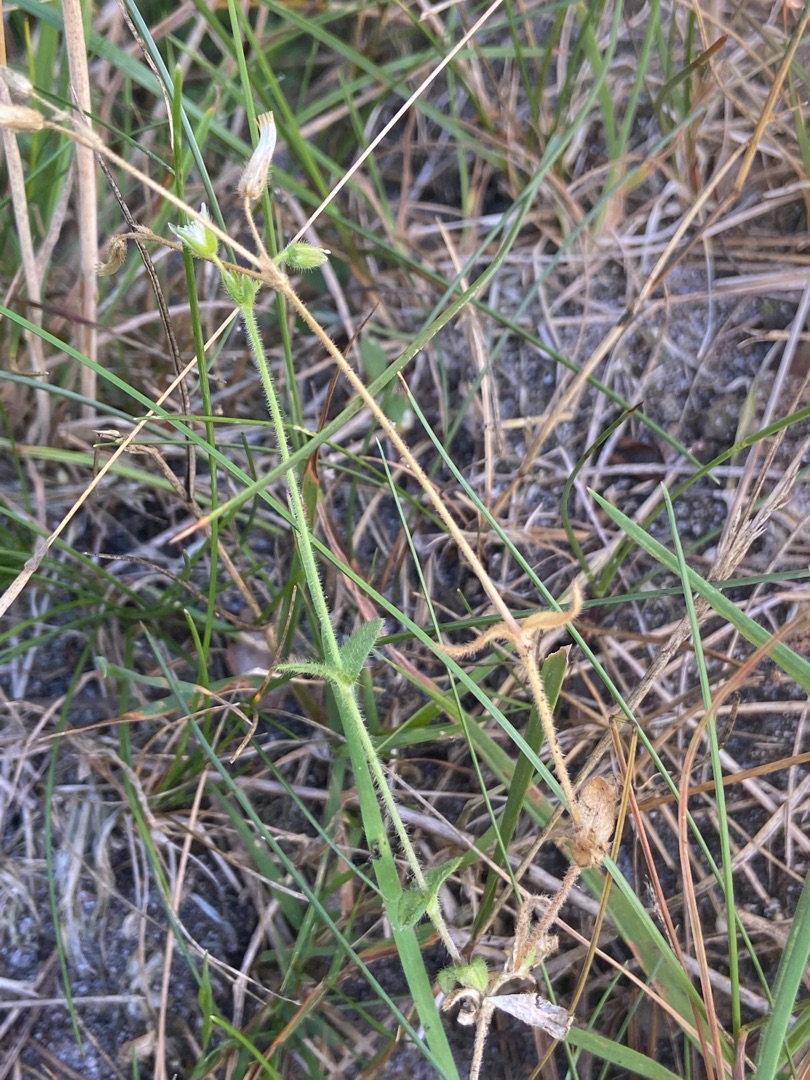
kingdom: Plantae
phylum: Tracheophyta
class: Magnoliopsida
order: Caryophyllales
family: Caryophyllaceae
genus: Cerastium
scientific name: Cerastium fontanum
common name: Almindelig hønsetarm
